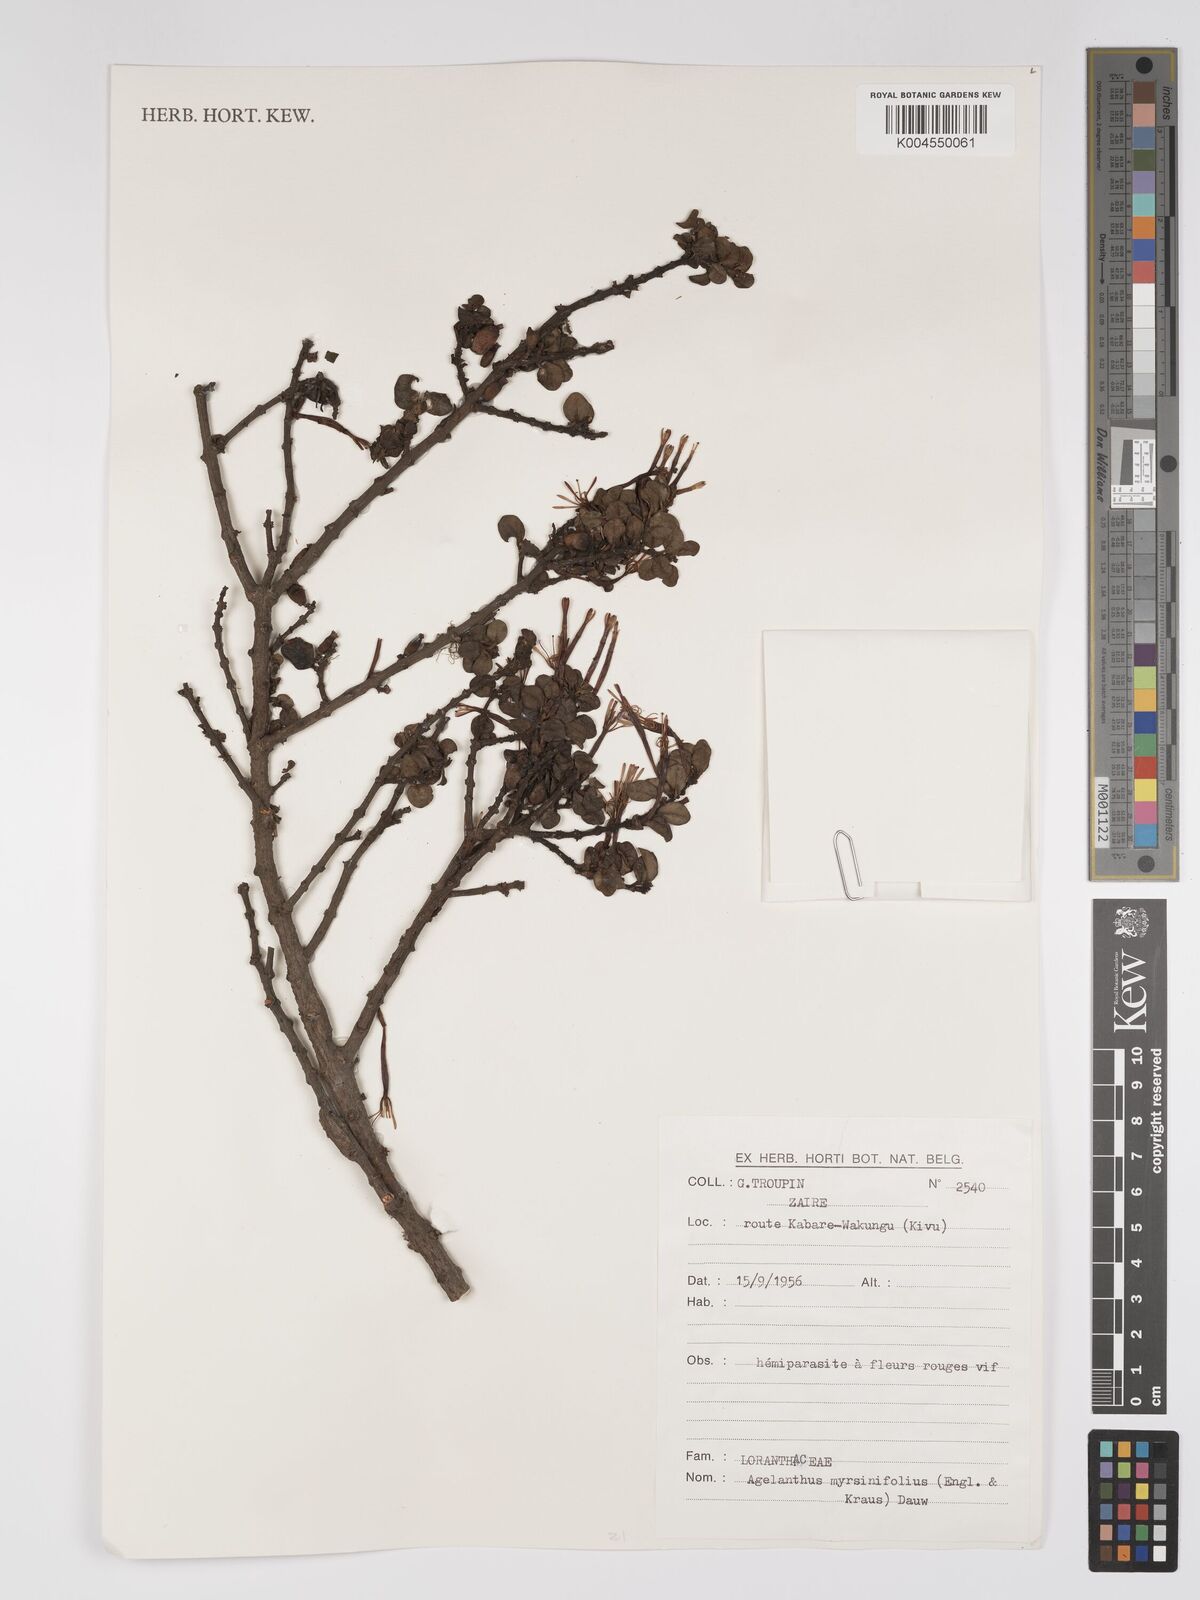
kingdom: Plantae
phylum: Tracheophyta
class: Magnoliopsida
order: Santalales
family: Loranthaceae
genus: Agelanthus
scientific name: Agelanthus myrsinifolius
